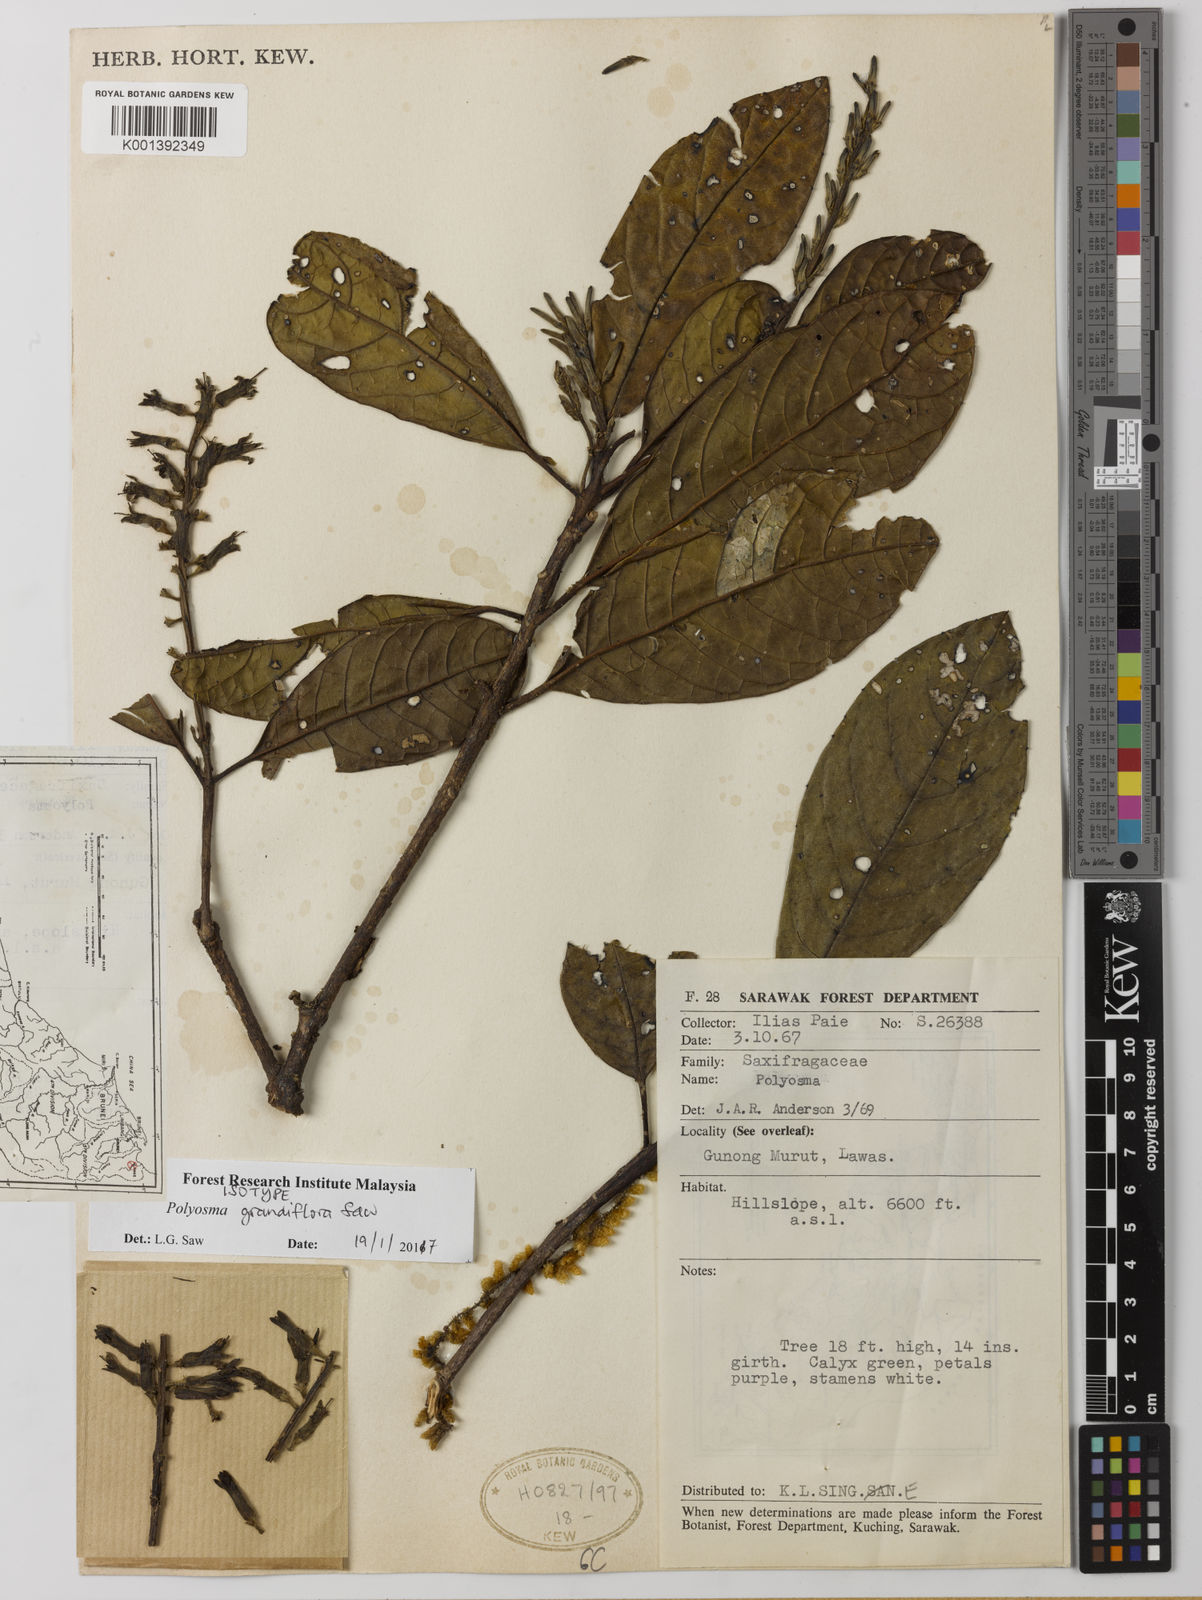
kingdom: Plantae
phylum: Tracheophyta
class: Magnoliopsida
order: Escalloniales
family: Escalloniaceae
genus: Polyosma
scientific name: Polyosma
